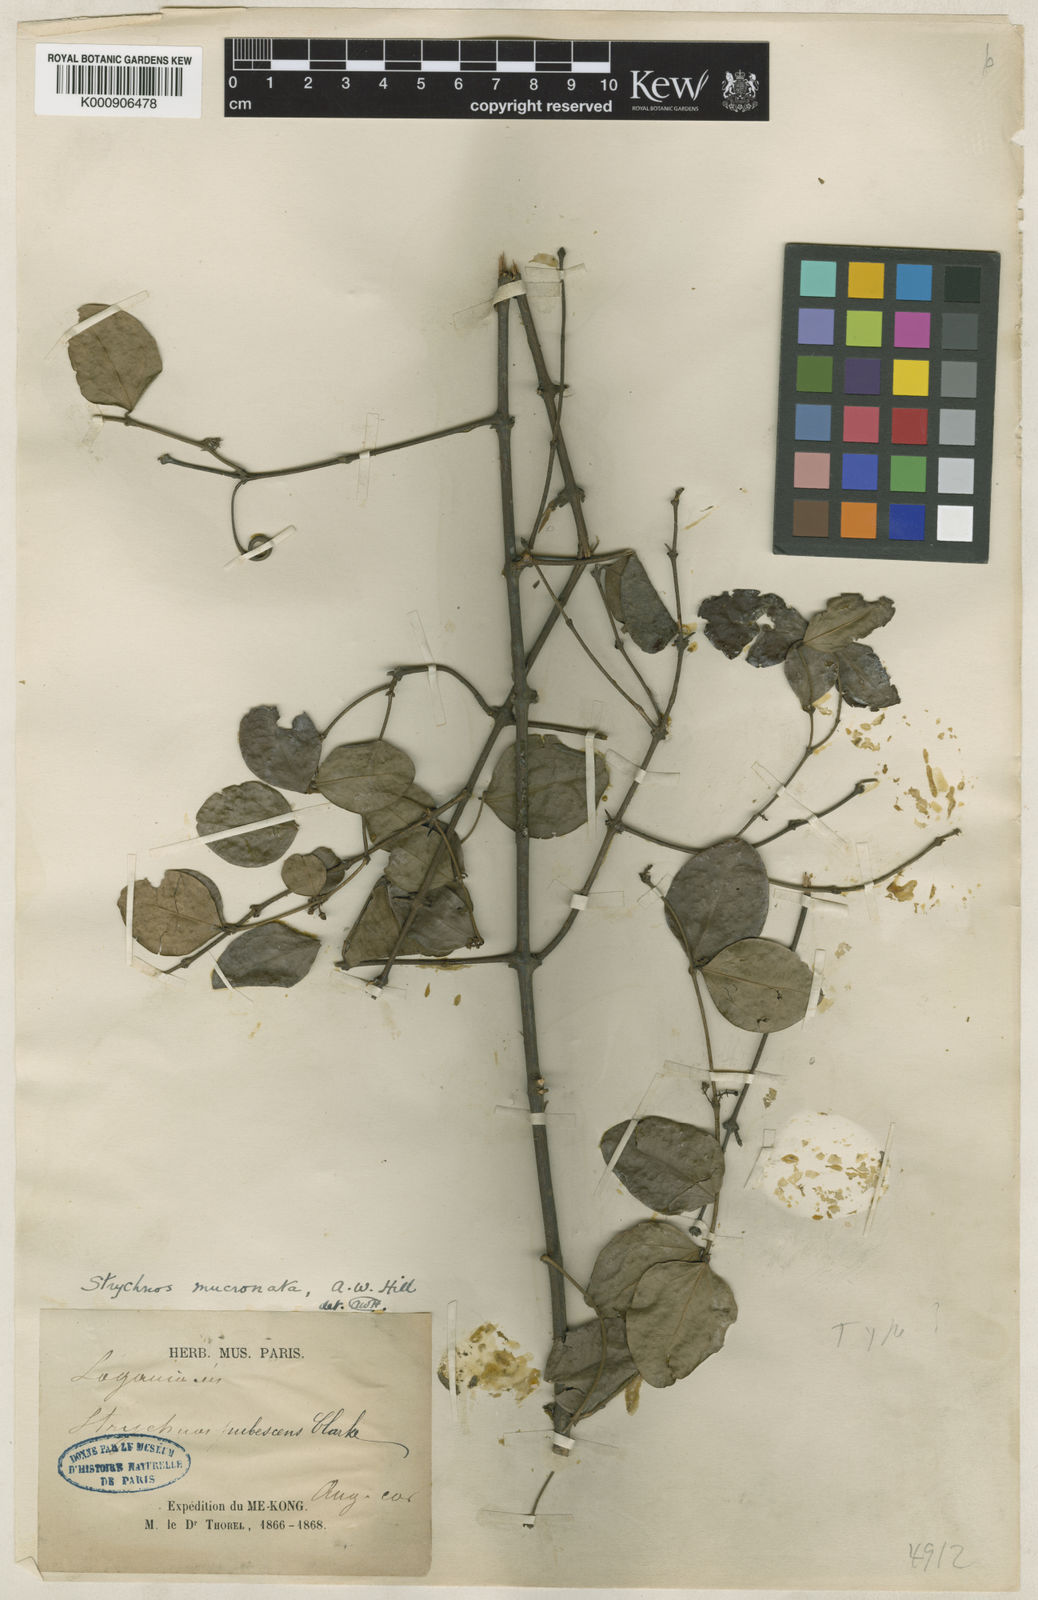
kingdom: Plantae
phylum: Tracheophyta
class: Magnoliopsida
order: Gentianales
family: Loganiaceae
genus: Strychnos
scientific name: Strychnos axillaris
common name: Strychninebush
